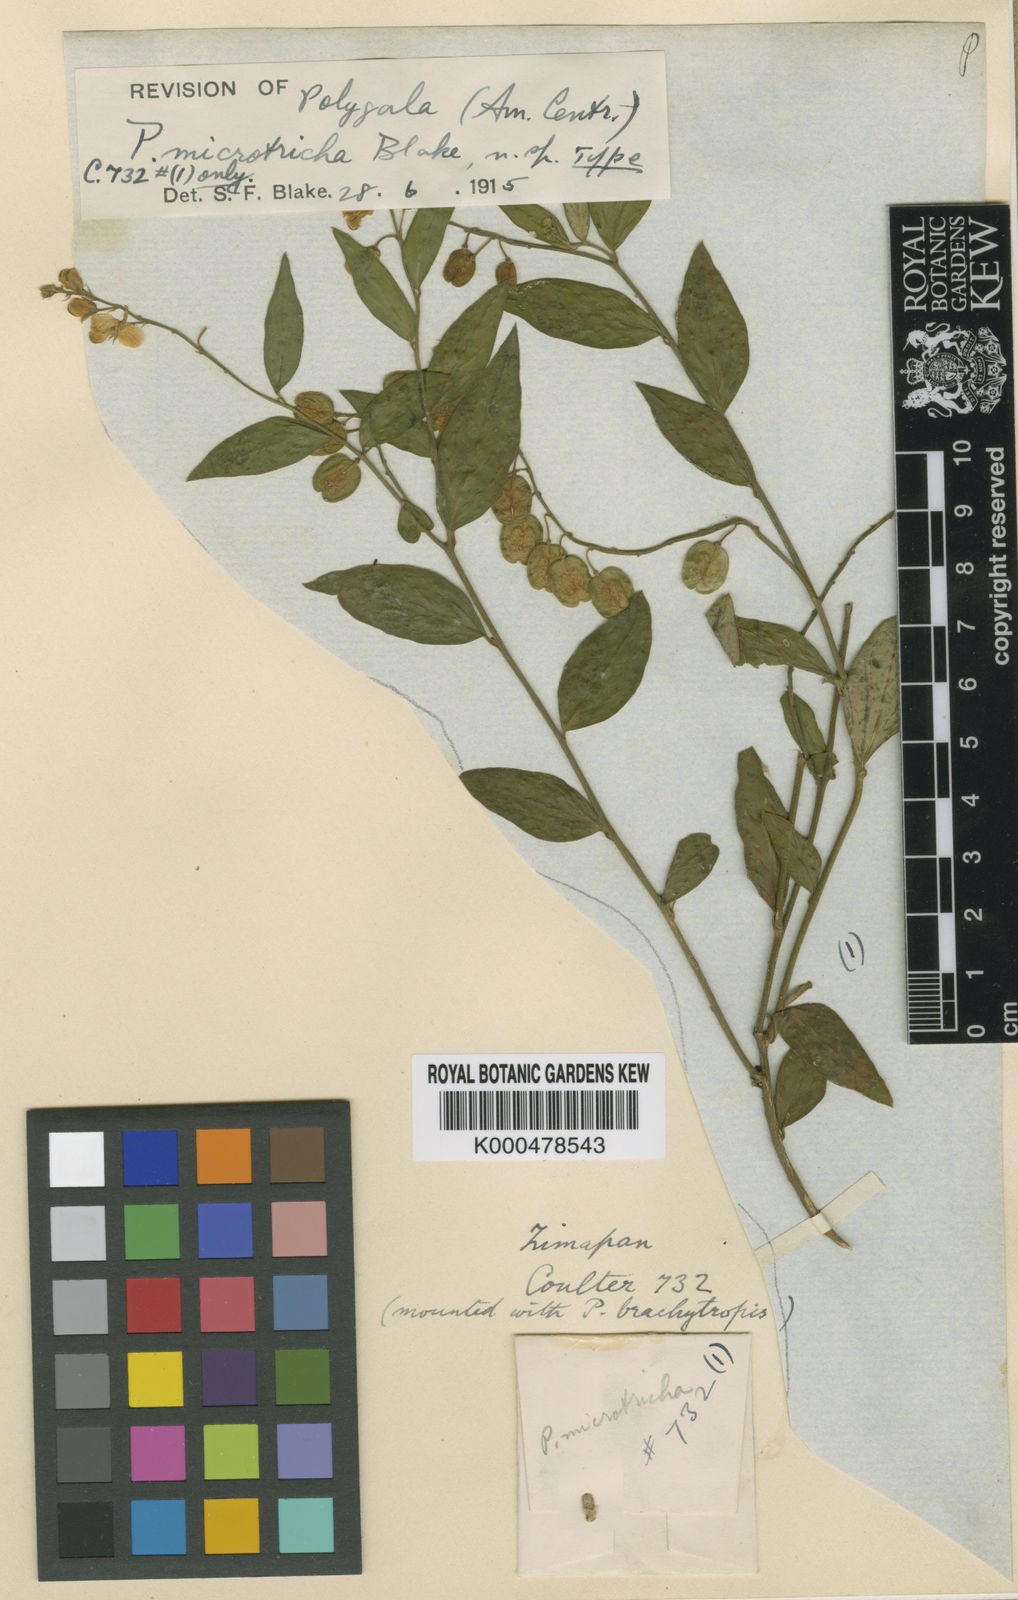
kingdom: Plantae
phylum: Tracheophyta
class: Magnoliopsida
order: Fabales
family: Polygalaceae
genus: Polygala
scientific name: Polygala microtricha
